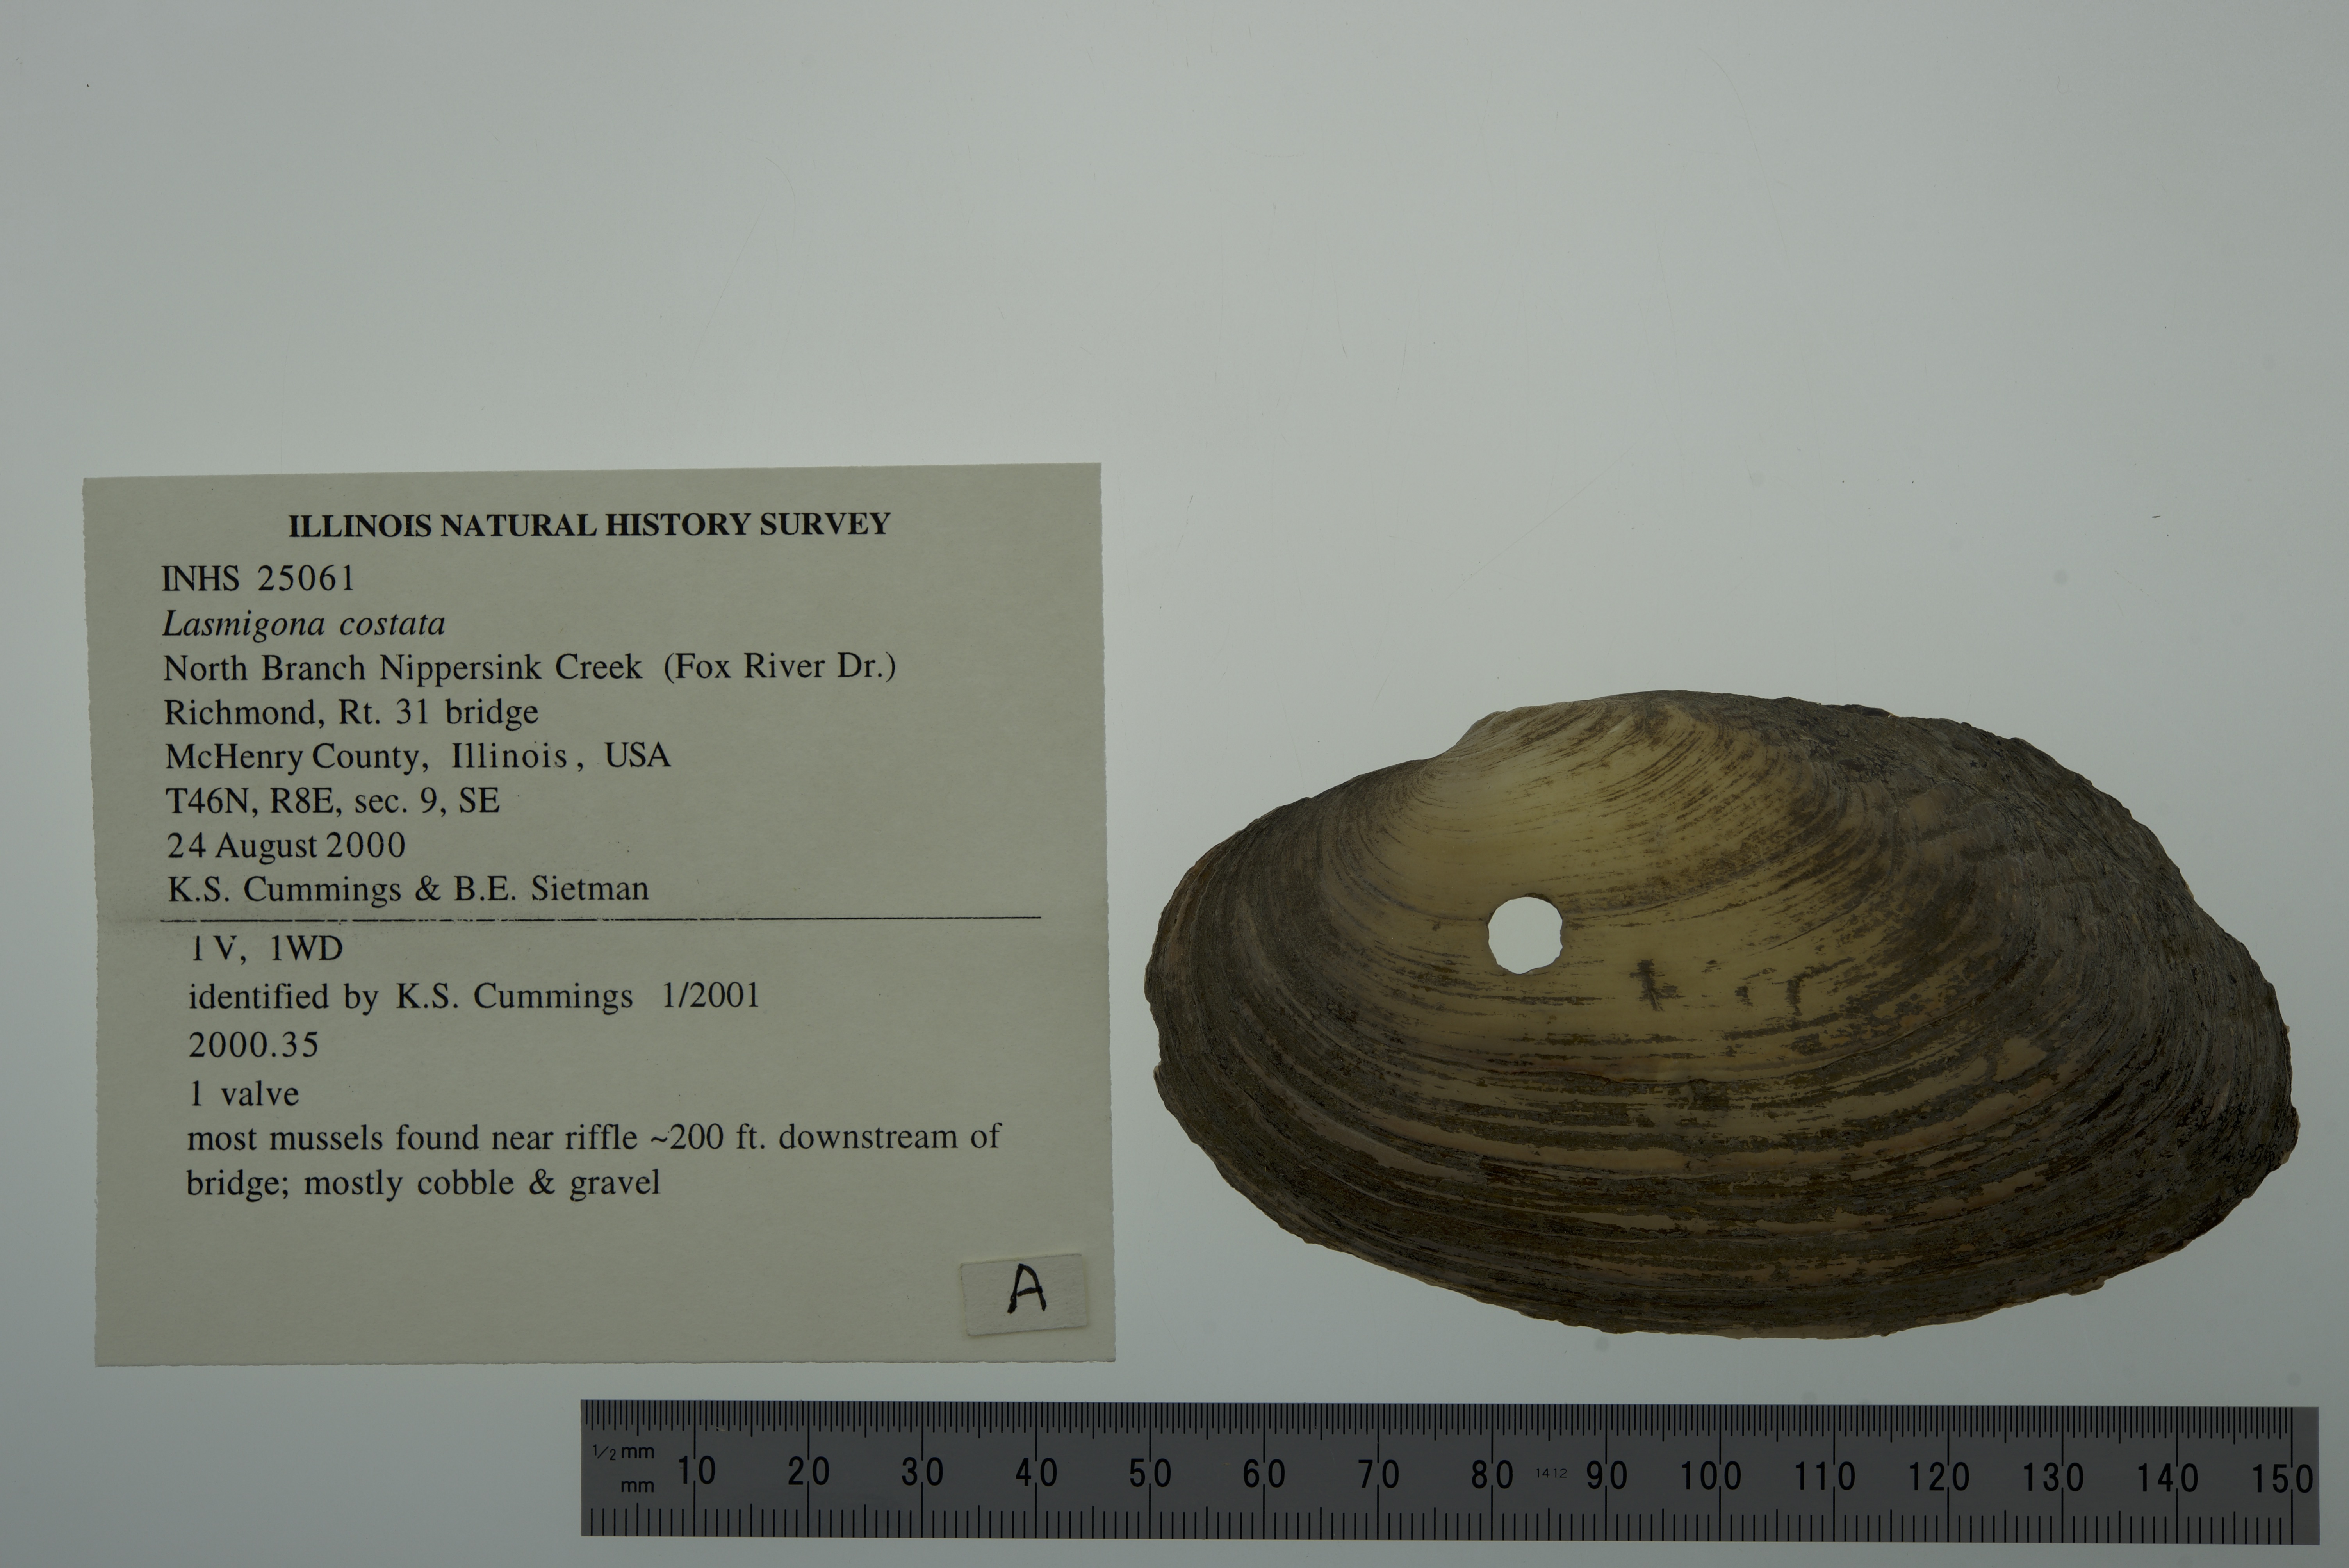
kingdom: Animalia
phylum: Mollusca
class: Bivalvia
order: Unionida
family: Unionidae
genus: Lasmigona
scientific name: Lasmigona costata
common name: Flutedshell
